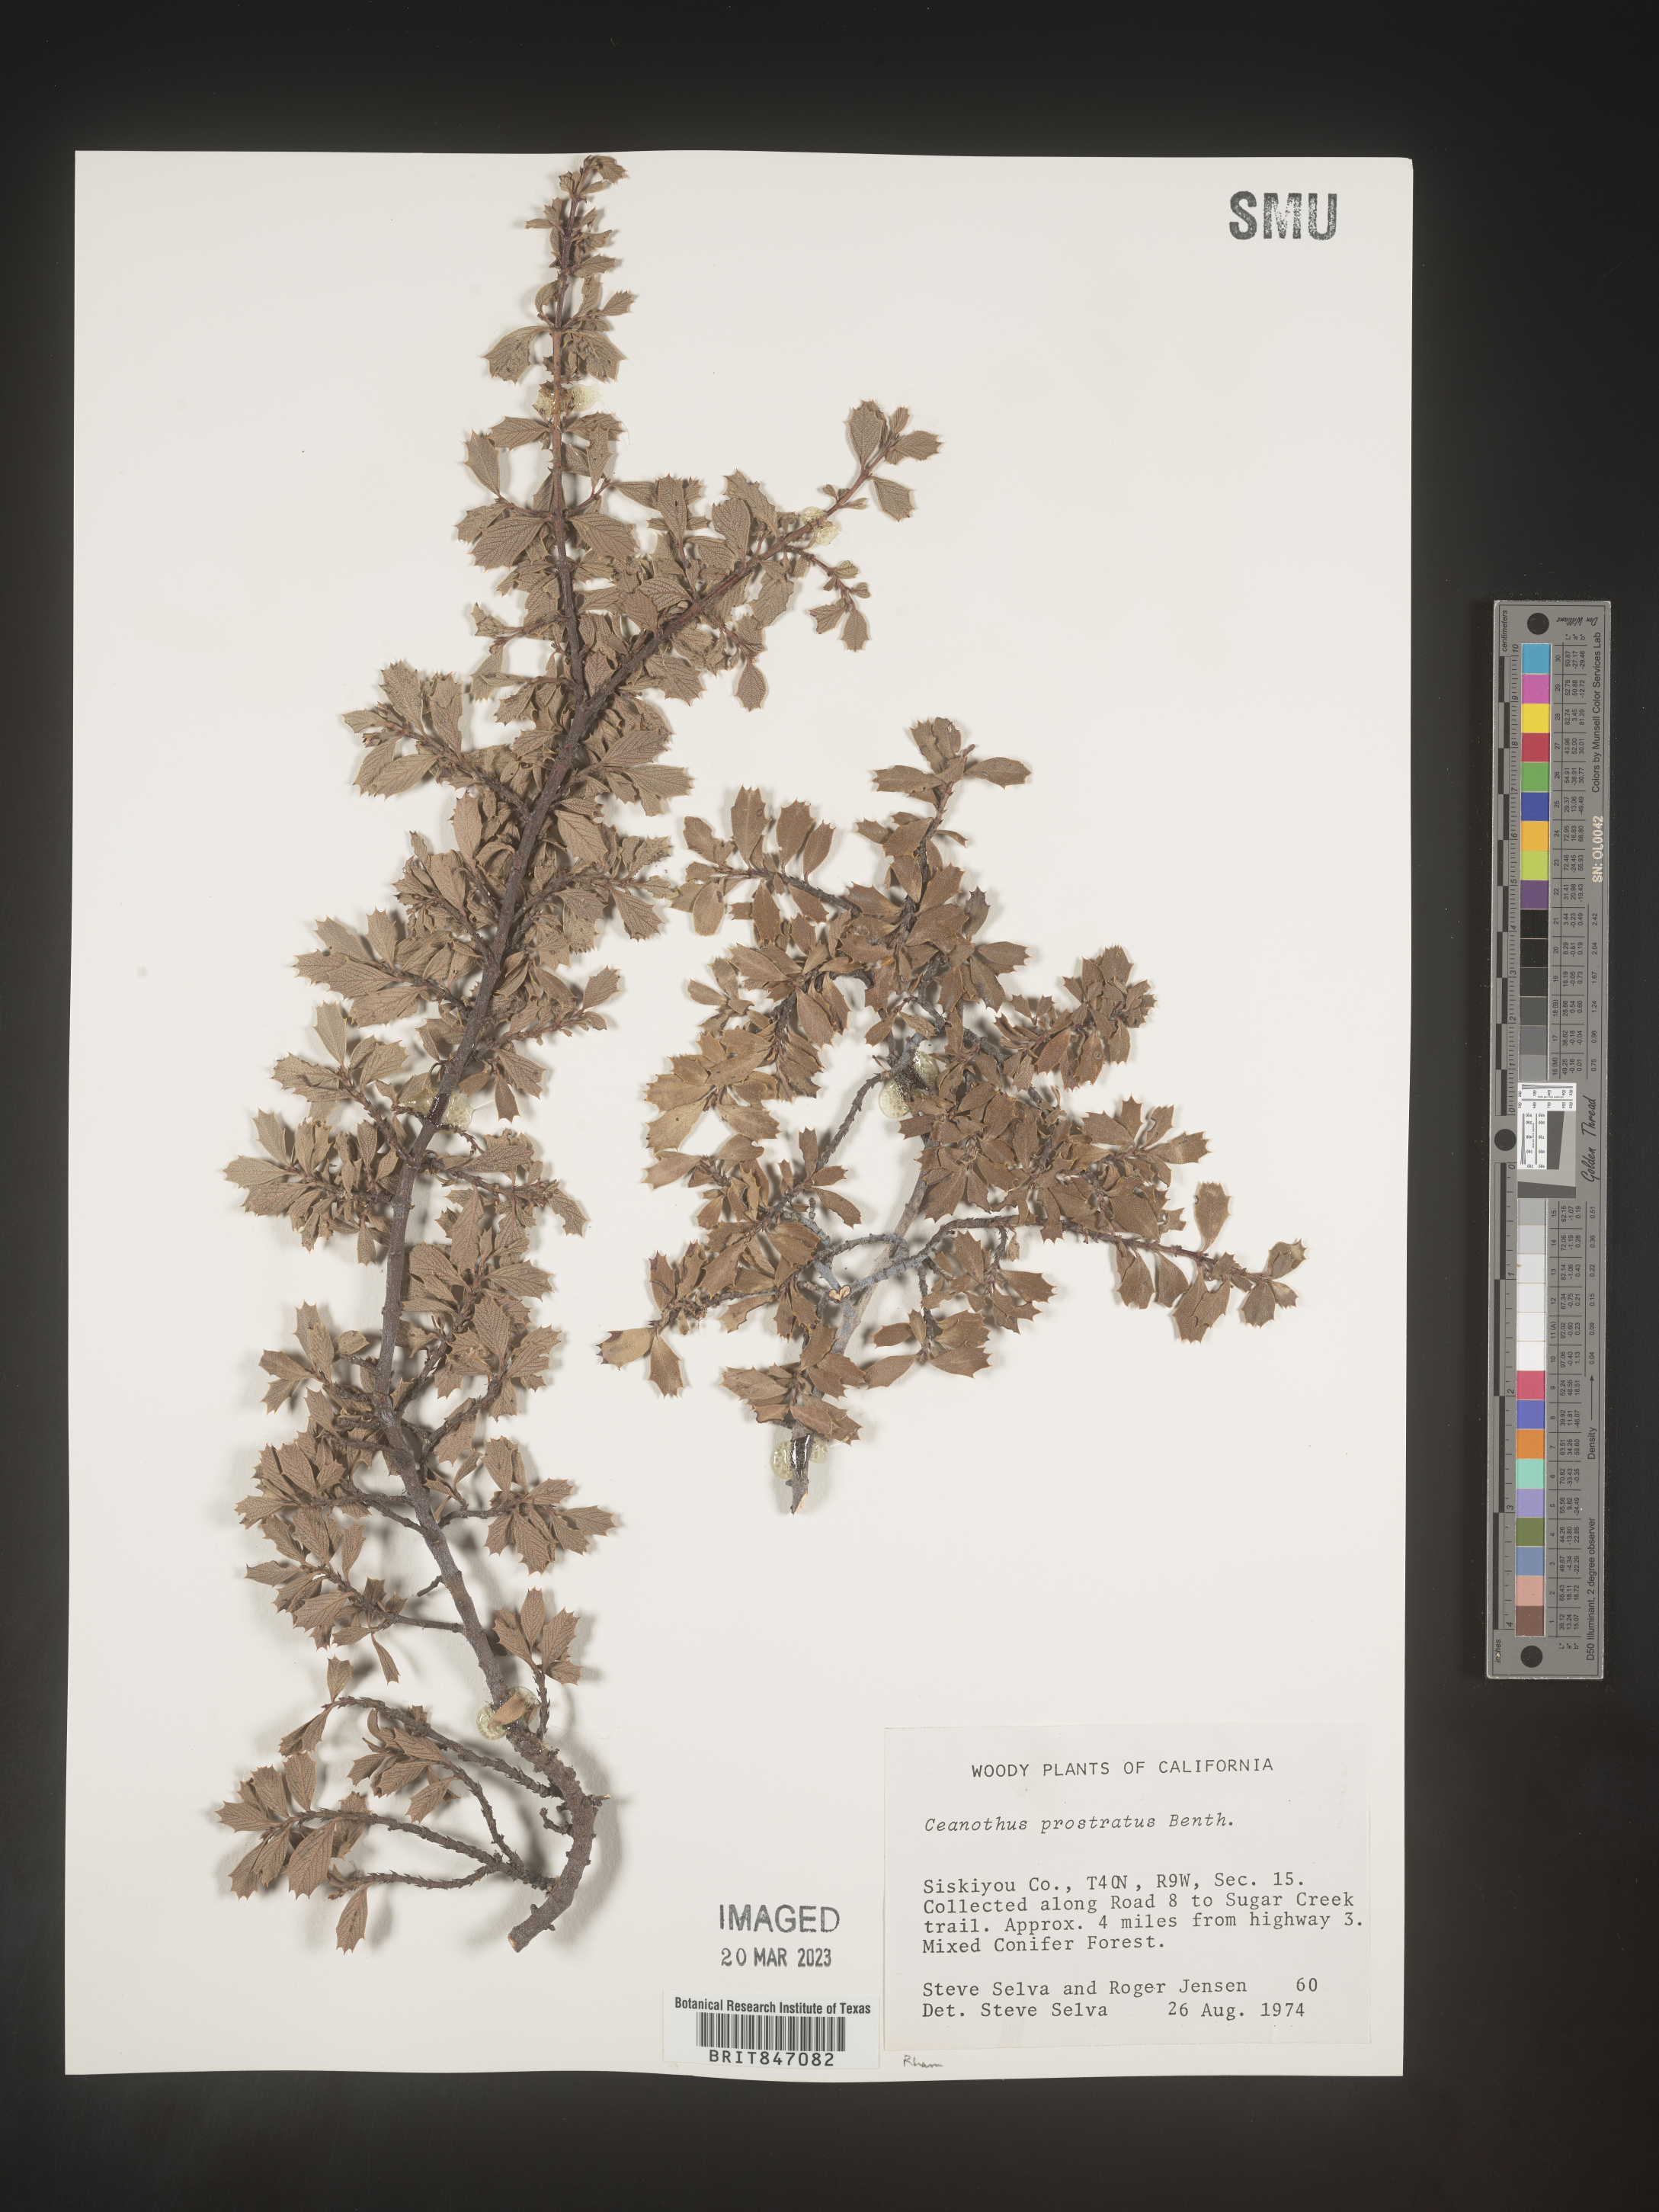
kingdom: Plantae
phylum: Tracheophyta
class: Magnoliopsida
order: Rosales
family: Rhamnaceae
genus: Ceanothus
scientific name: Ceanothus
